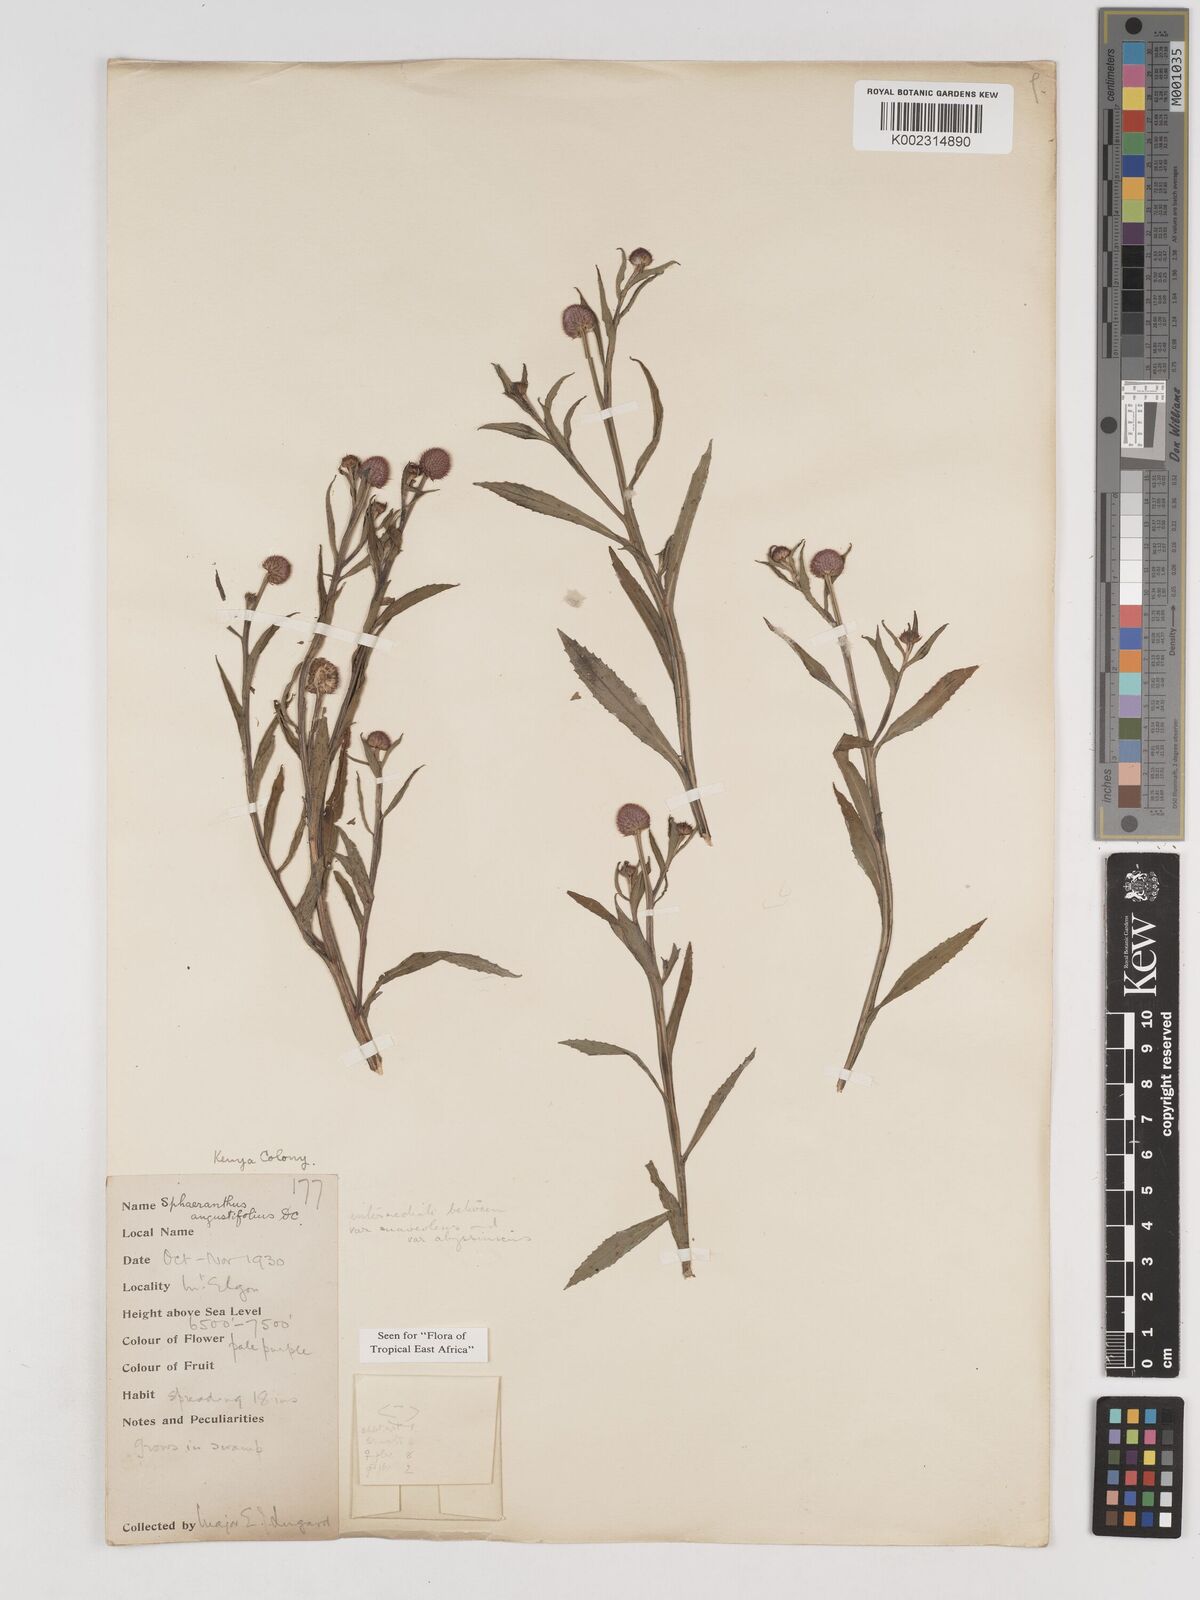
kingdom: Plantae
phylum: Tracheophyta
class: Magnoliopsida
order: Asterales
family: Asteraceae
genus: Sphaeranthus
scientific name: Sphaeranthus suaveolens
